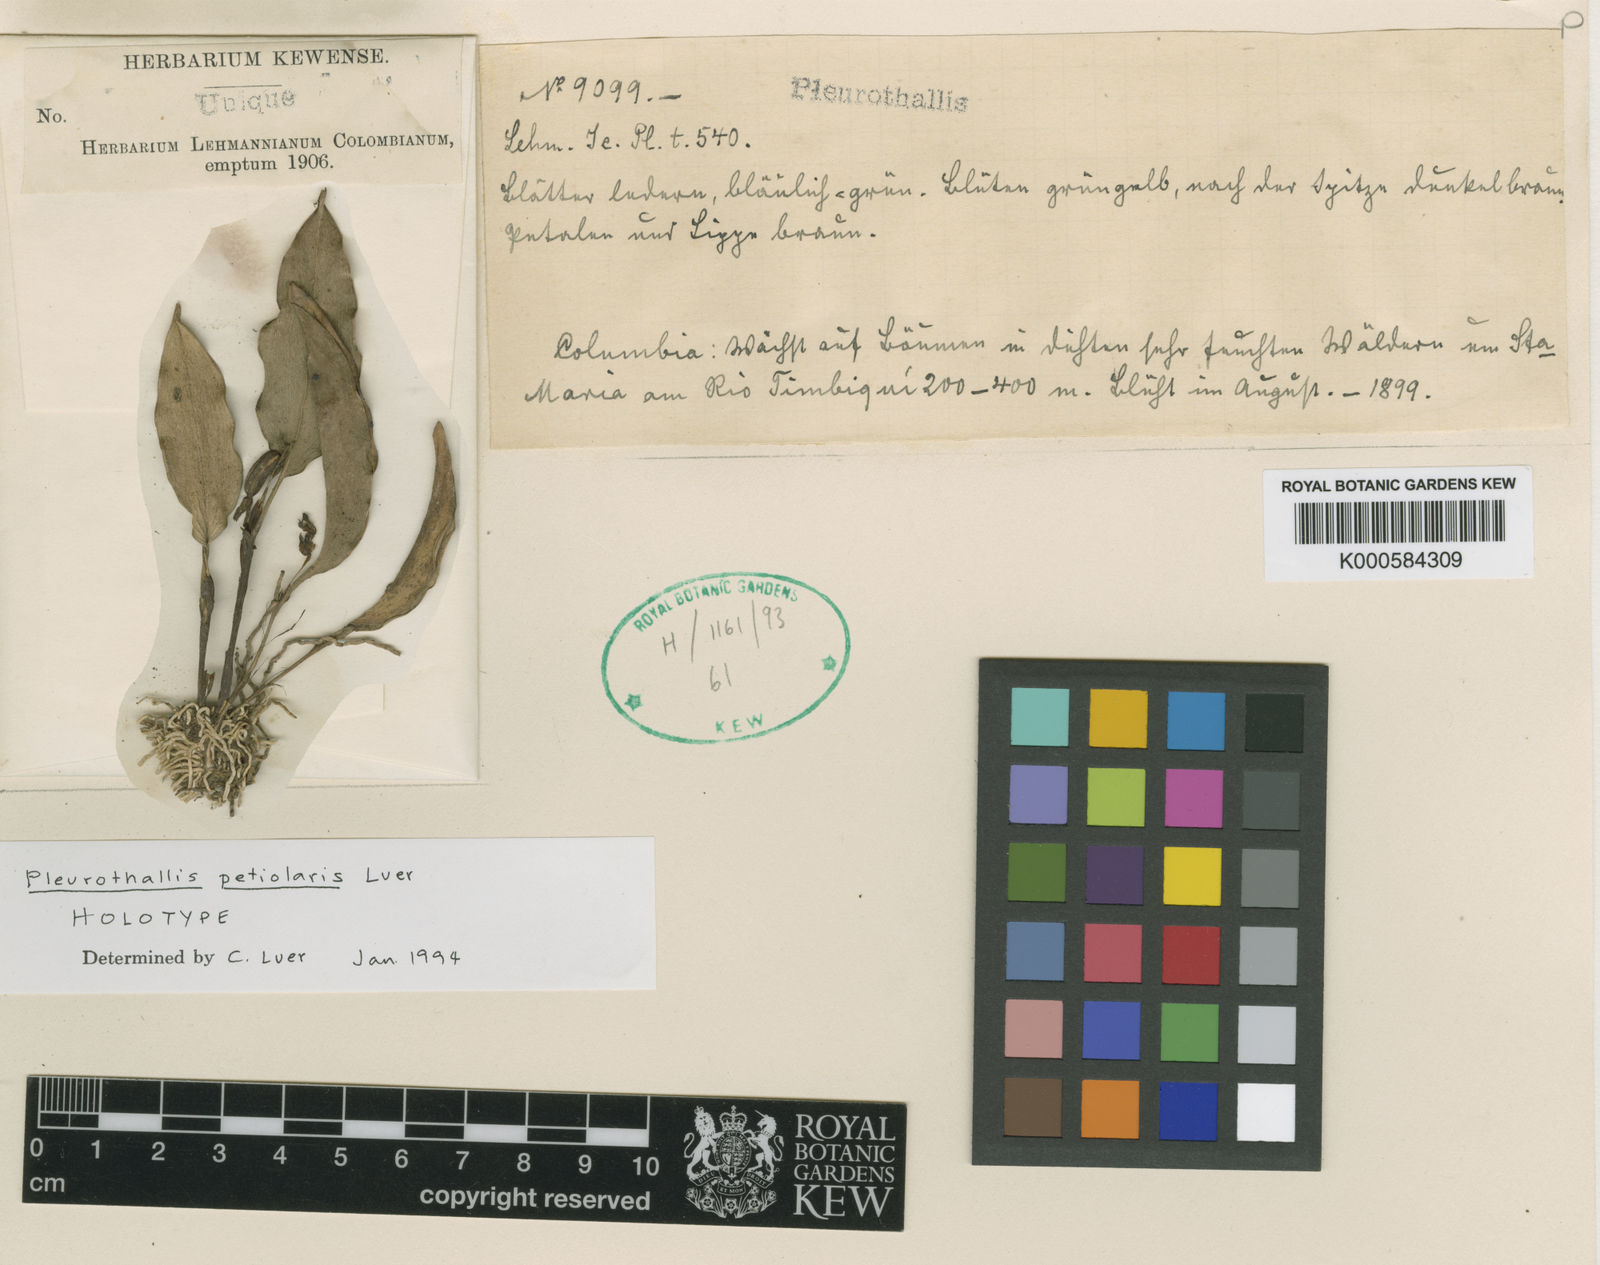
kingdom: Plantae
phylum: Tracheophyta
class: Liliopsida
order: Asparagales
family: Orchidaceae
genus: Stelis
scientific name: Stelis lehmannii
